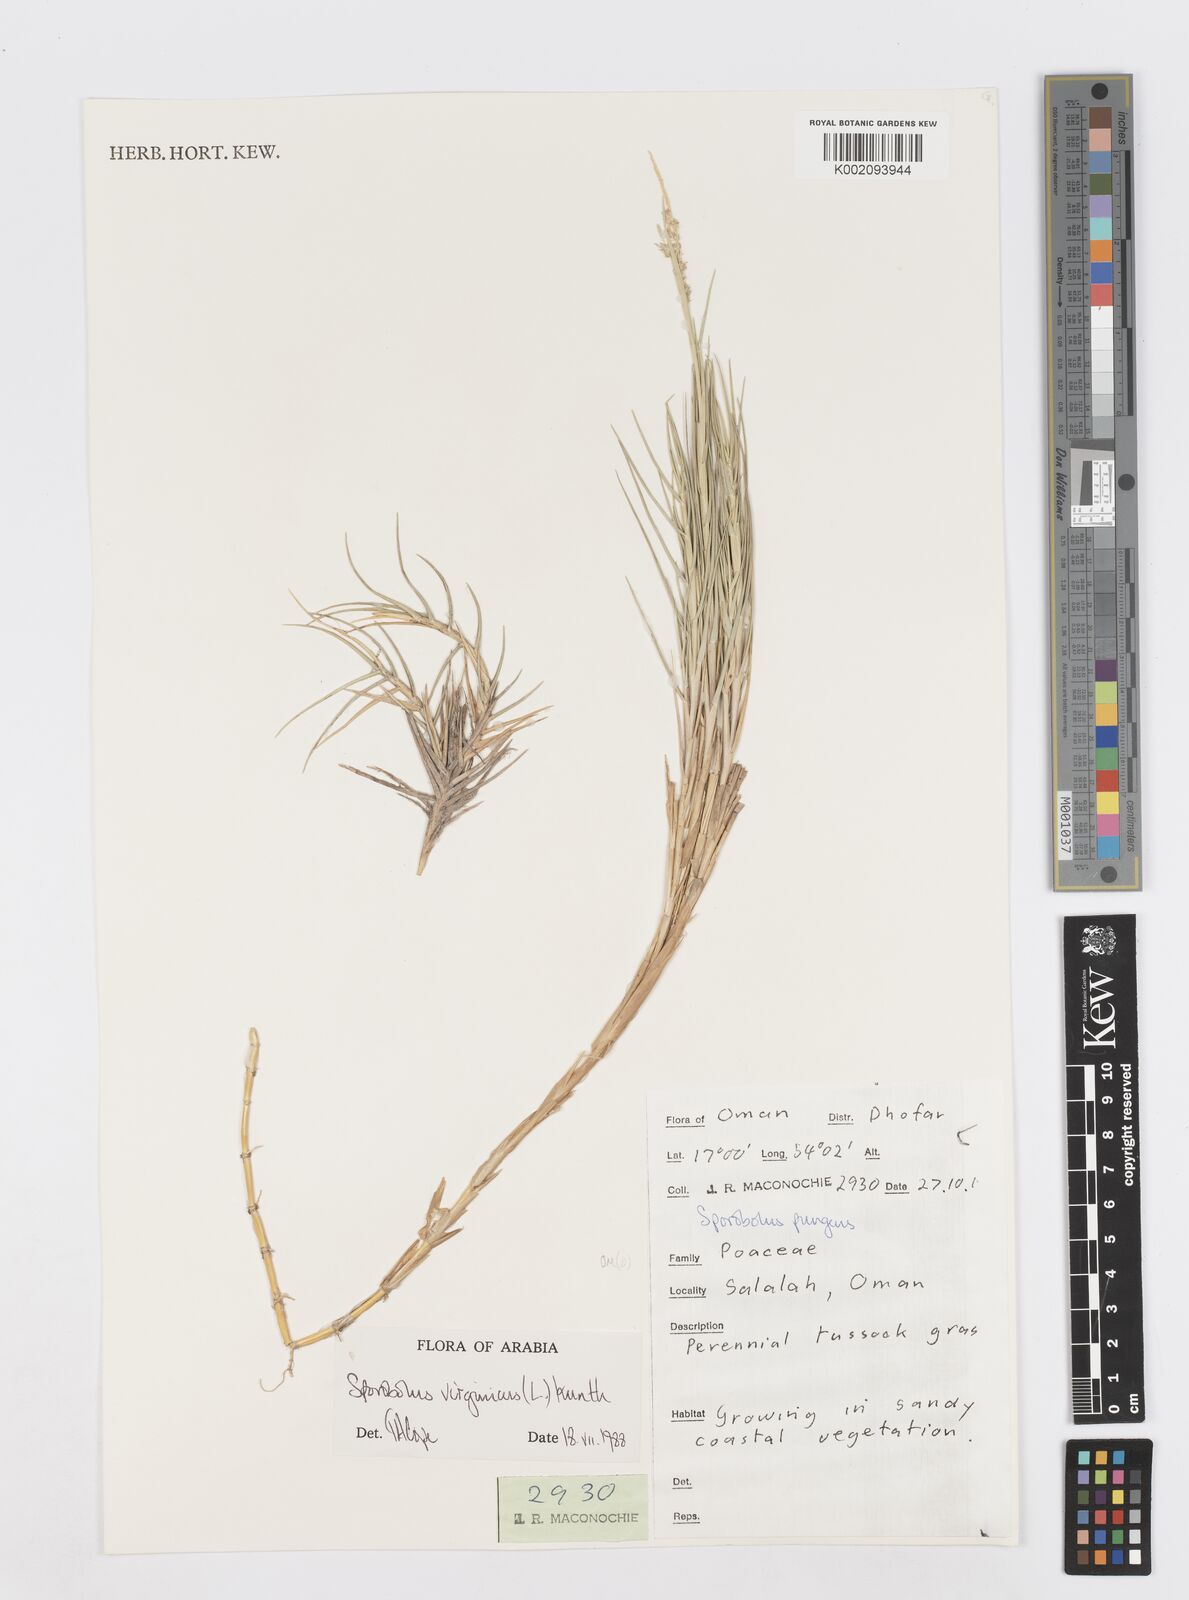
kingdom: Plantae
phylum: Tracheophyta
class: Liliopsida
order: Poales
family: Poaceae
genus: Sporobolus
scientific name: Sporobolus virginicus
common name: Beach dropseed
